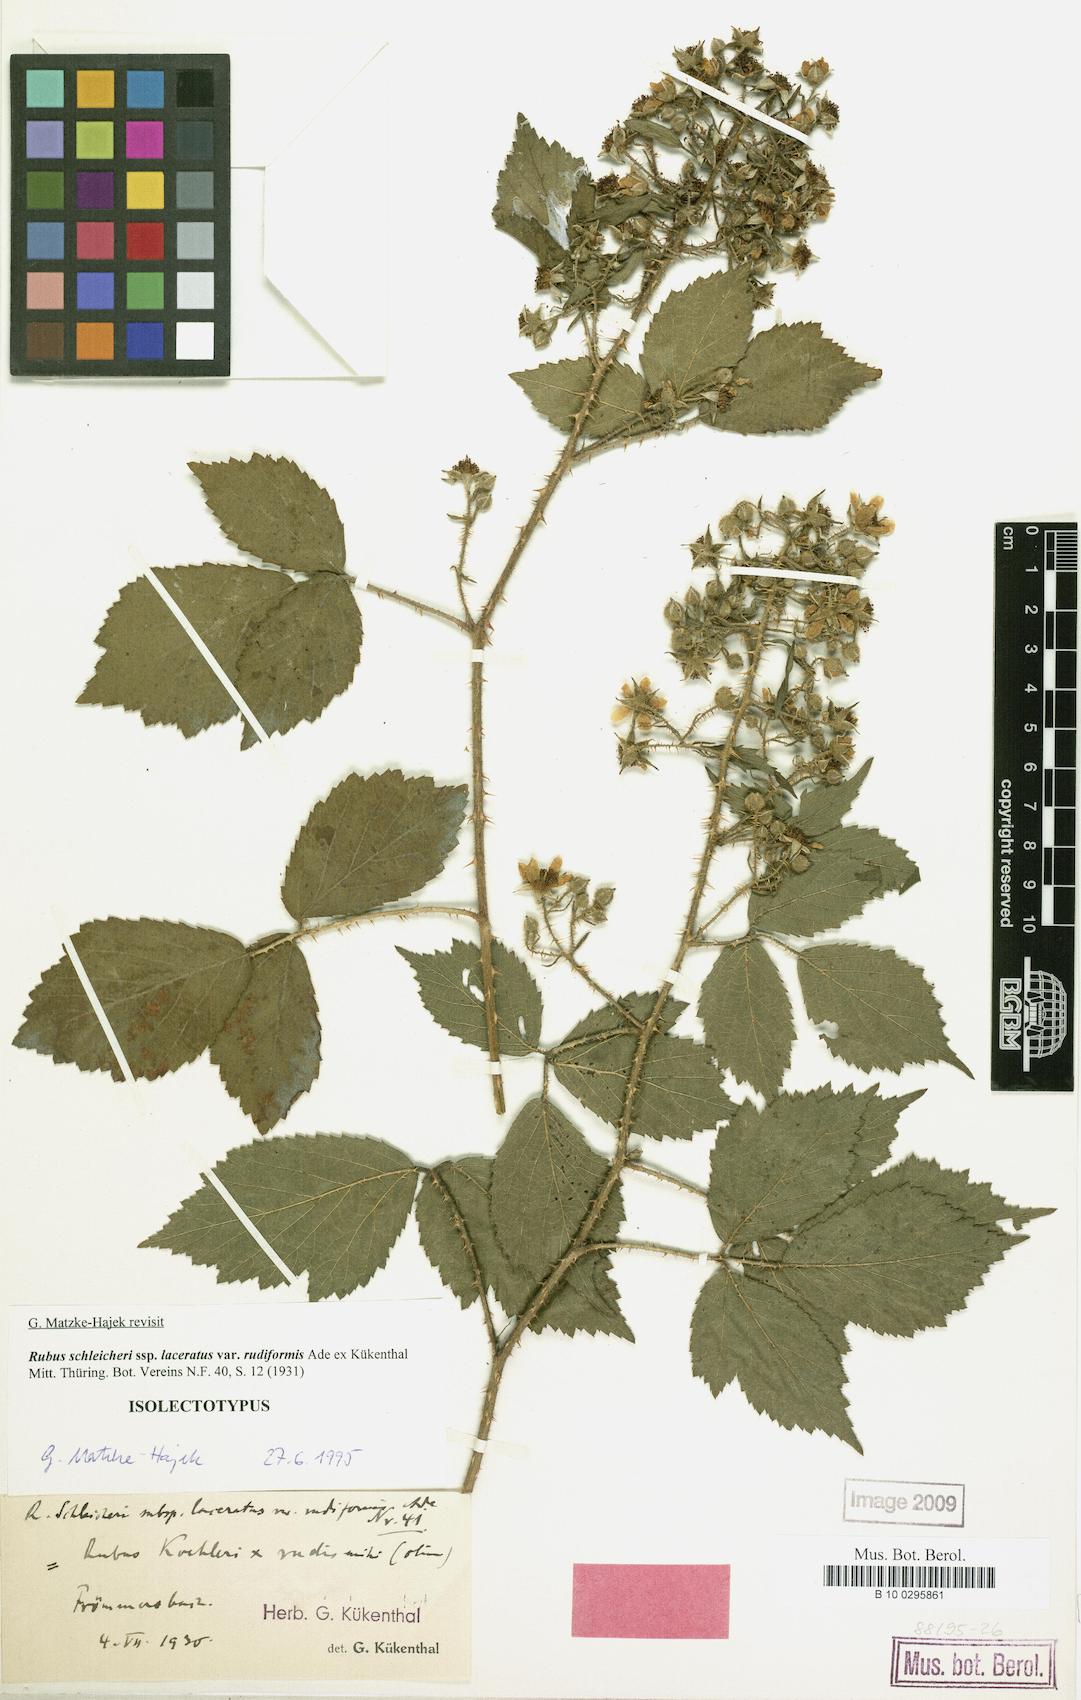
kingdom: Plantae
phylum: Tracheophyta
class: Magnoliopsida
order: Rosales
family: Rosaceae
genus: Rubus
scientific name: Rubus schleicheri
